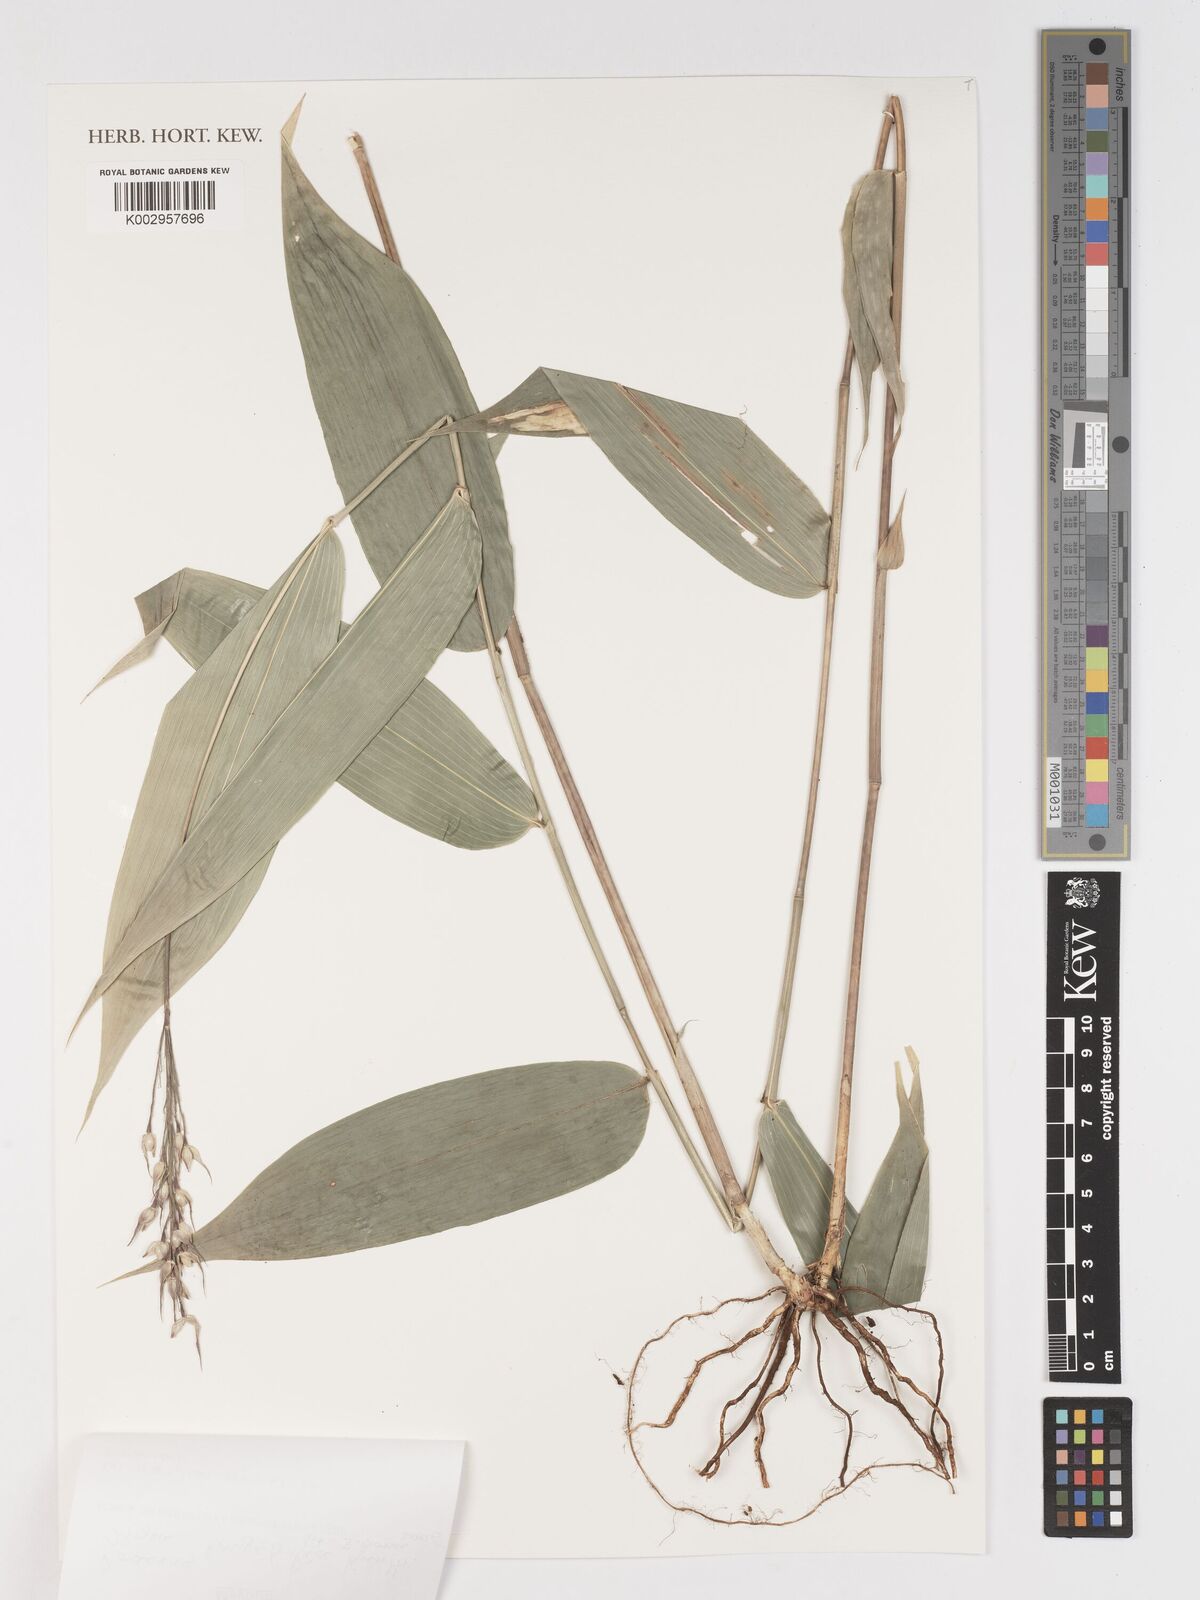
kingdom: Plantae
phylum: Tracheophyta
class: Liliopsida
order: Poales
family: Poaceae
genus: Olyra
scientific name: Olyra longifolia
